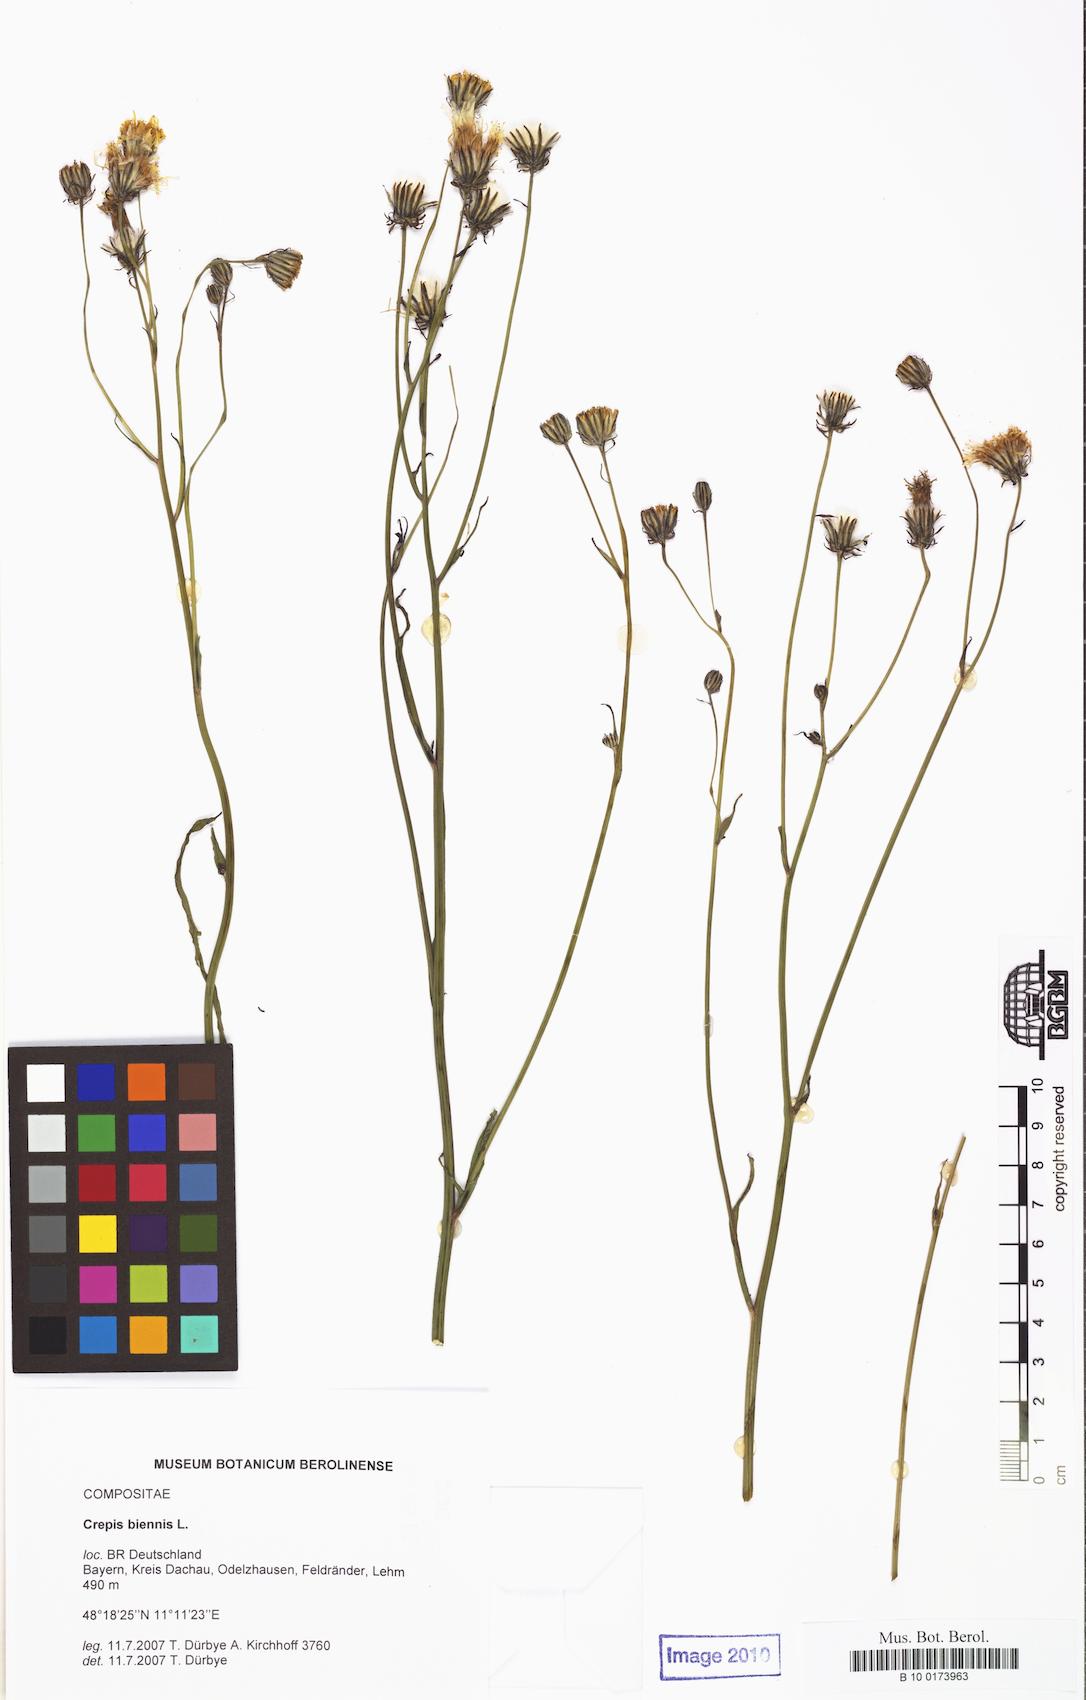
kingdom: Plantae
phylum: Tracheophyta
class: Magnoliopsida
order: Asterales
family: Asteraceae
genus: Crepis
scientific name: Crepis biennis
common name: Rough hawk's-beard
